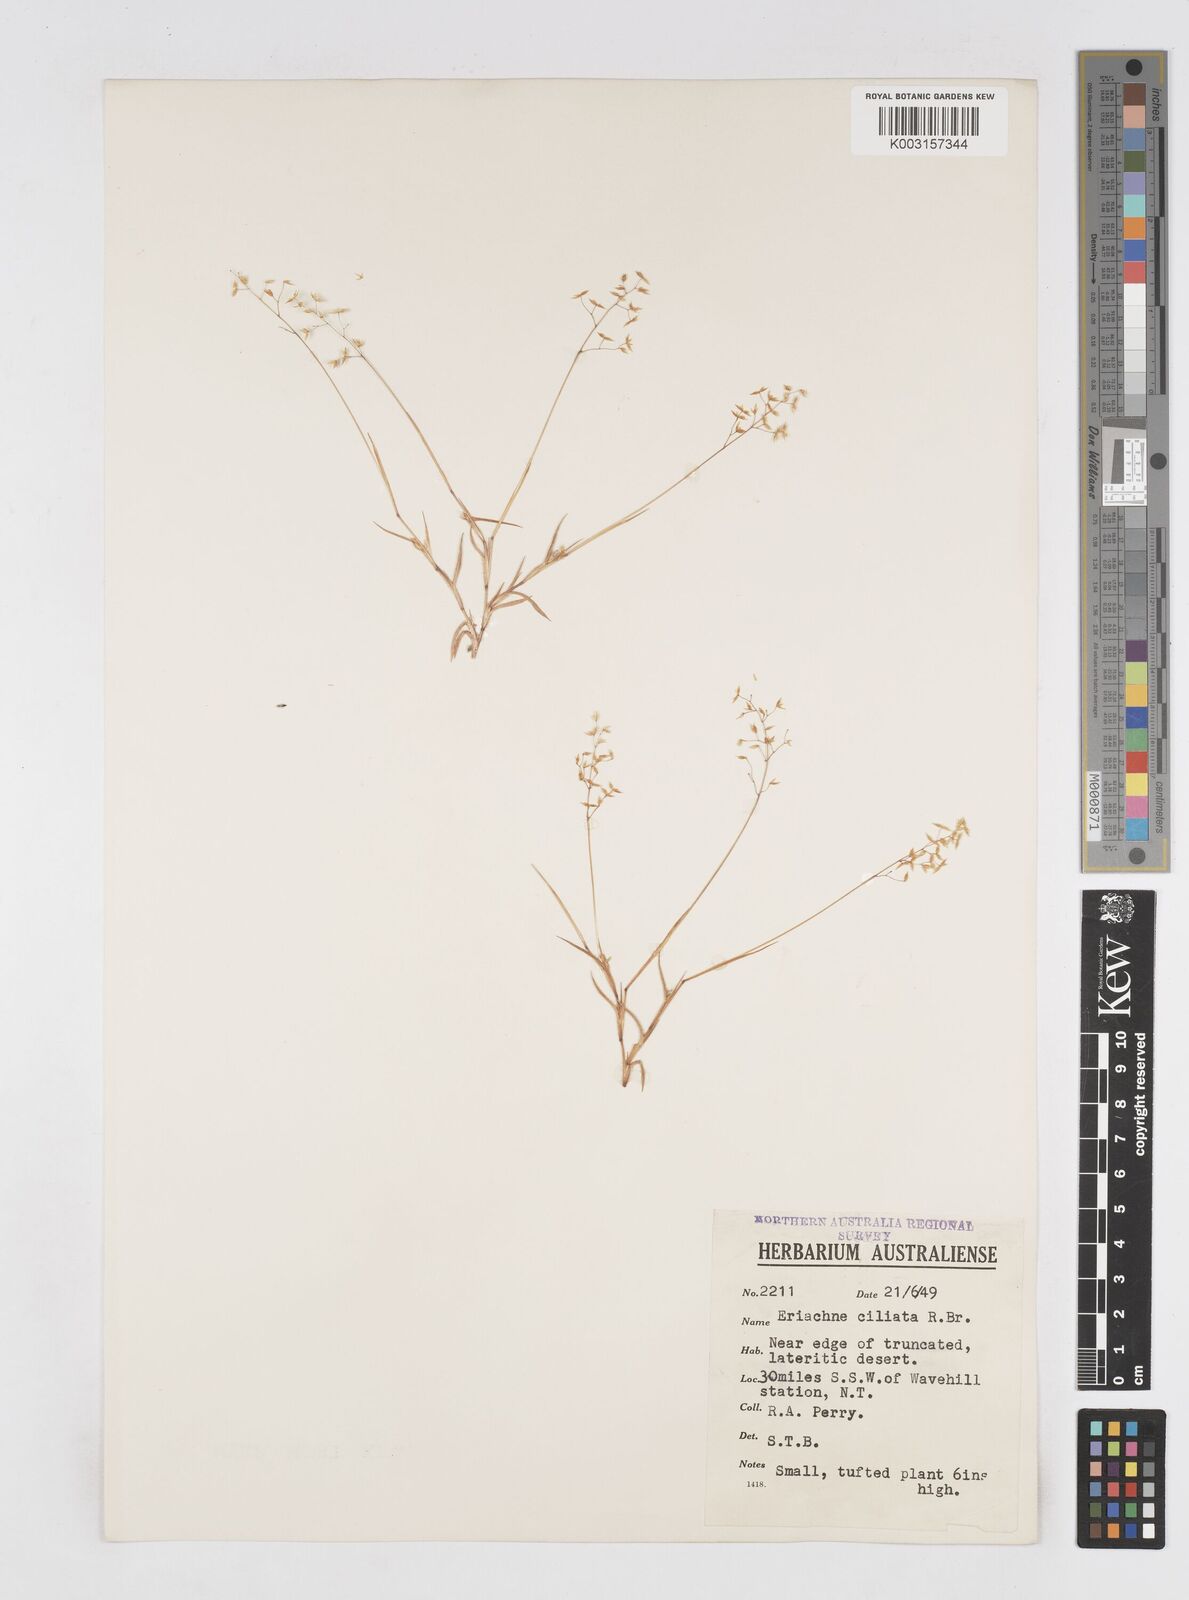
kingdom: Plantae
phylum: Tracheophyta
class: Liliopsida
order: Poales
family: Poaceae
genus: Eriachne
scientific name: Eriachne ciliata
